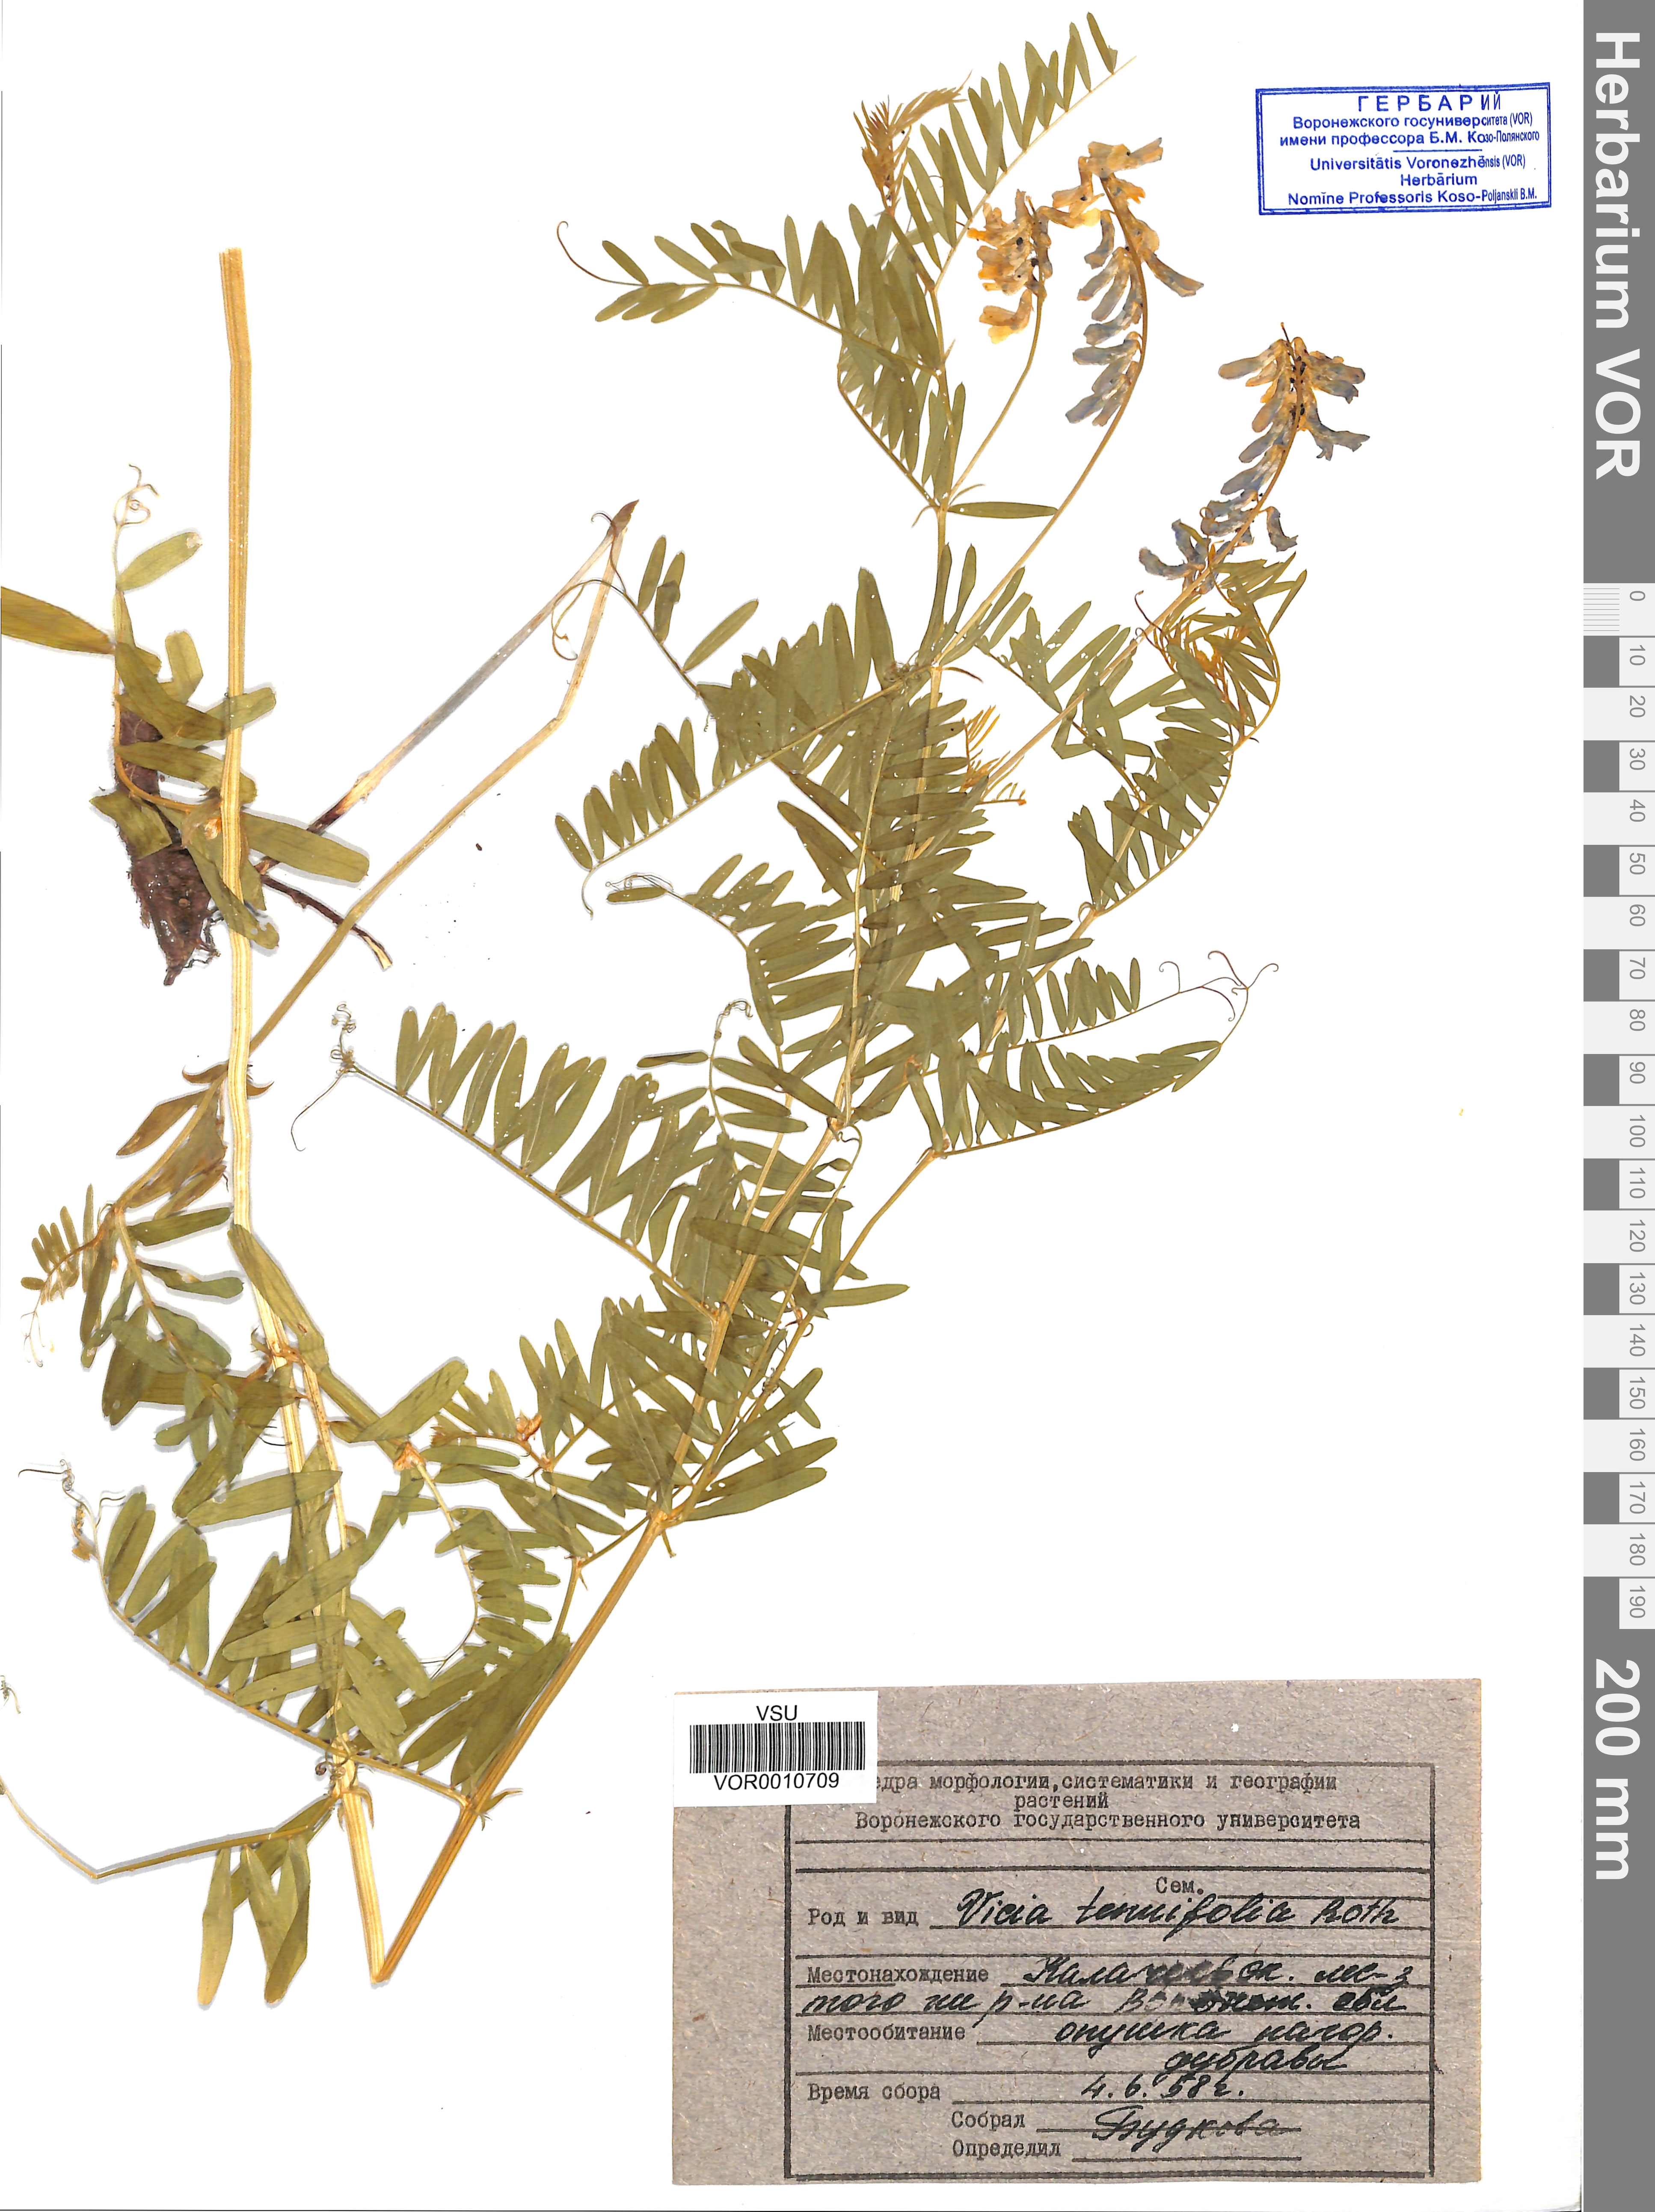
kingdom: Plantae
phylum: Tracheophyta
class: Magnoliopsida
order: Fabales
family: Fabaceae
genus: Vicia
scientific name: Vicia tenuifolia
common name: Fine-leaved vetch
